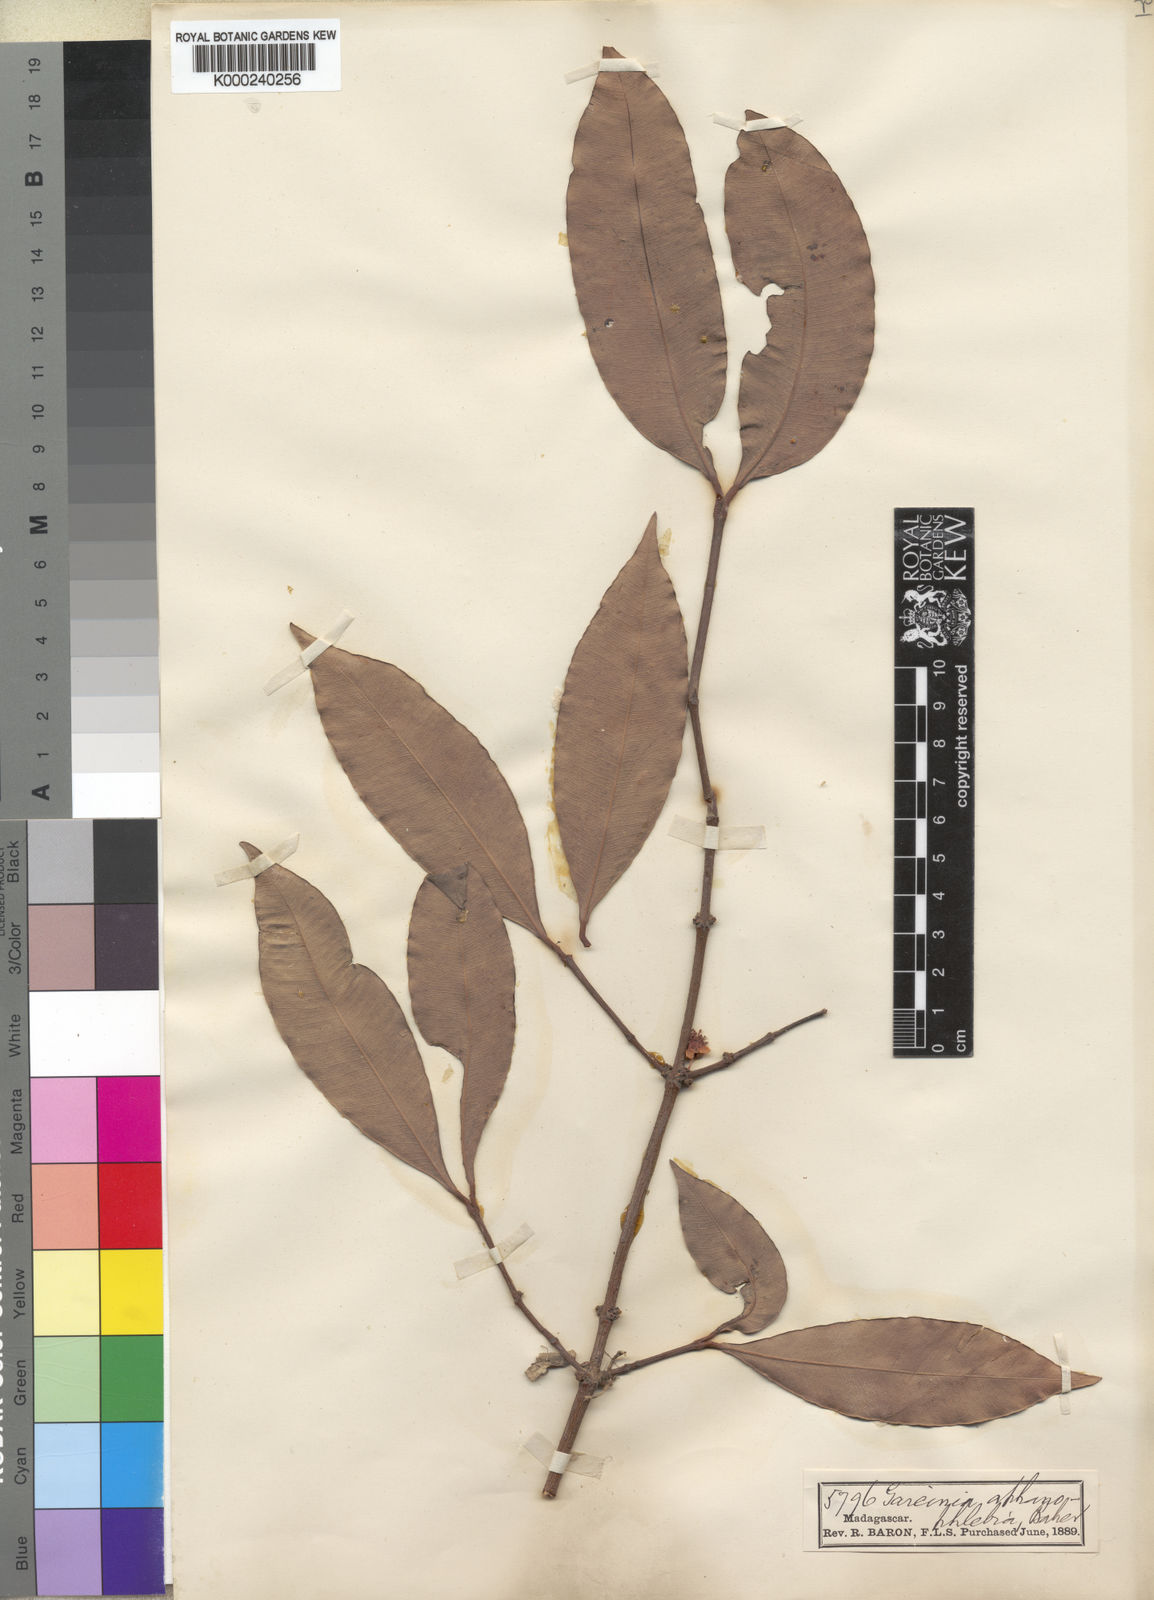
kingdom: Plantae
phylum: Tracheophyta
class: Magnoliopsida
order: Malpighiales
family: Clusiaceae
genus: Garcinia
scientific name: Garcinia aphanophlebia
